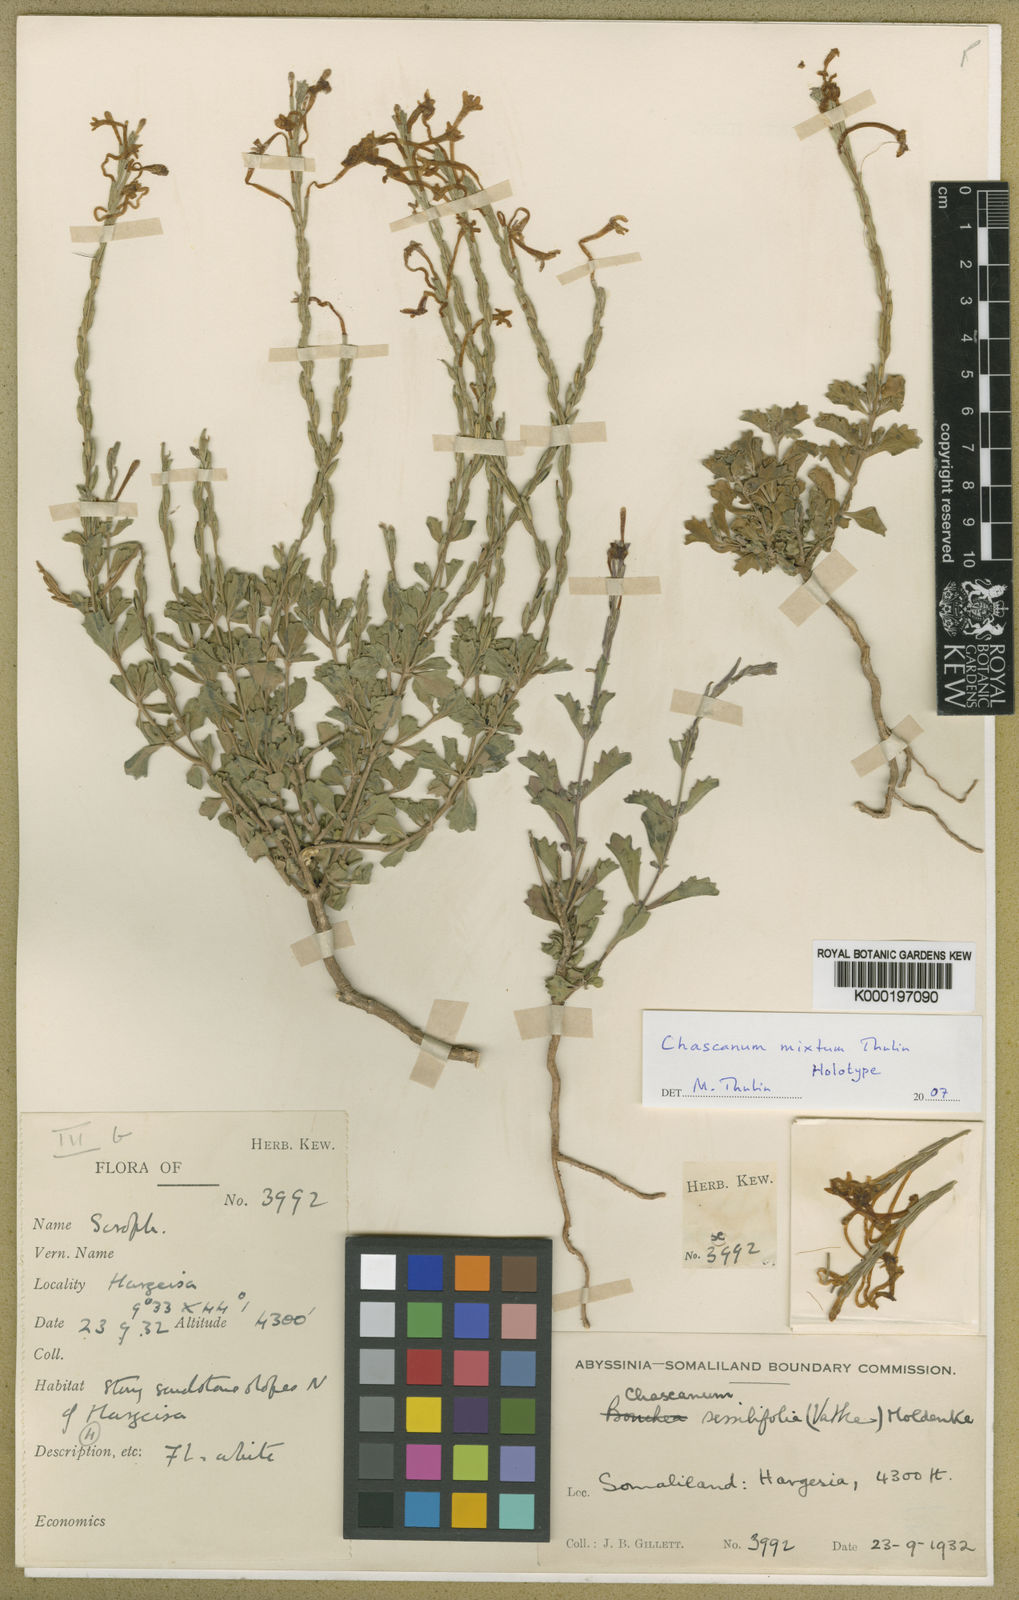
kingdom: Plantae
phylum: Tracheophyta
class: Magnoliopsida
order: Lamiales
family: Verbenaceae
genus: Chascanum
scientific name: Chascanum mixtum
